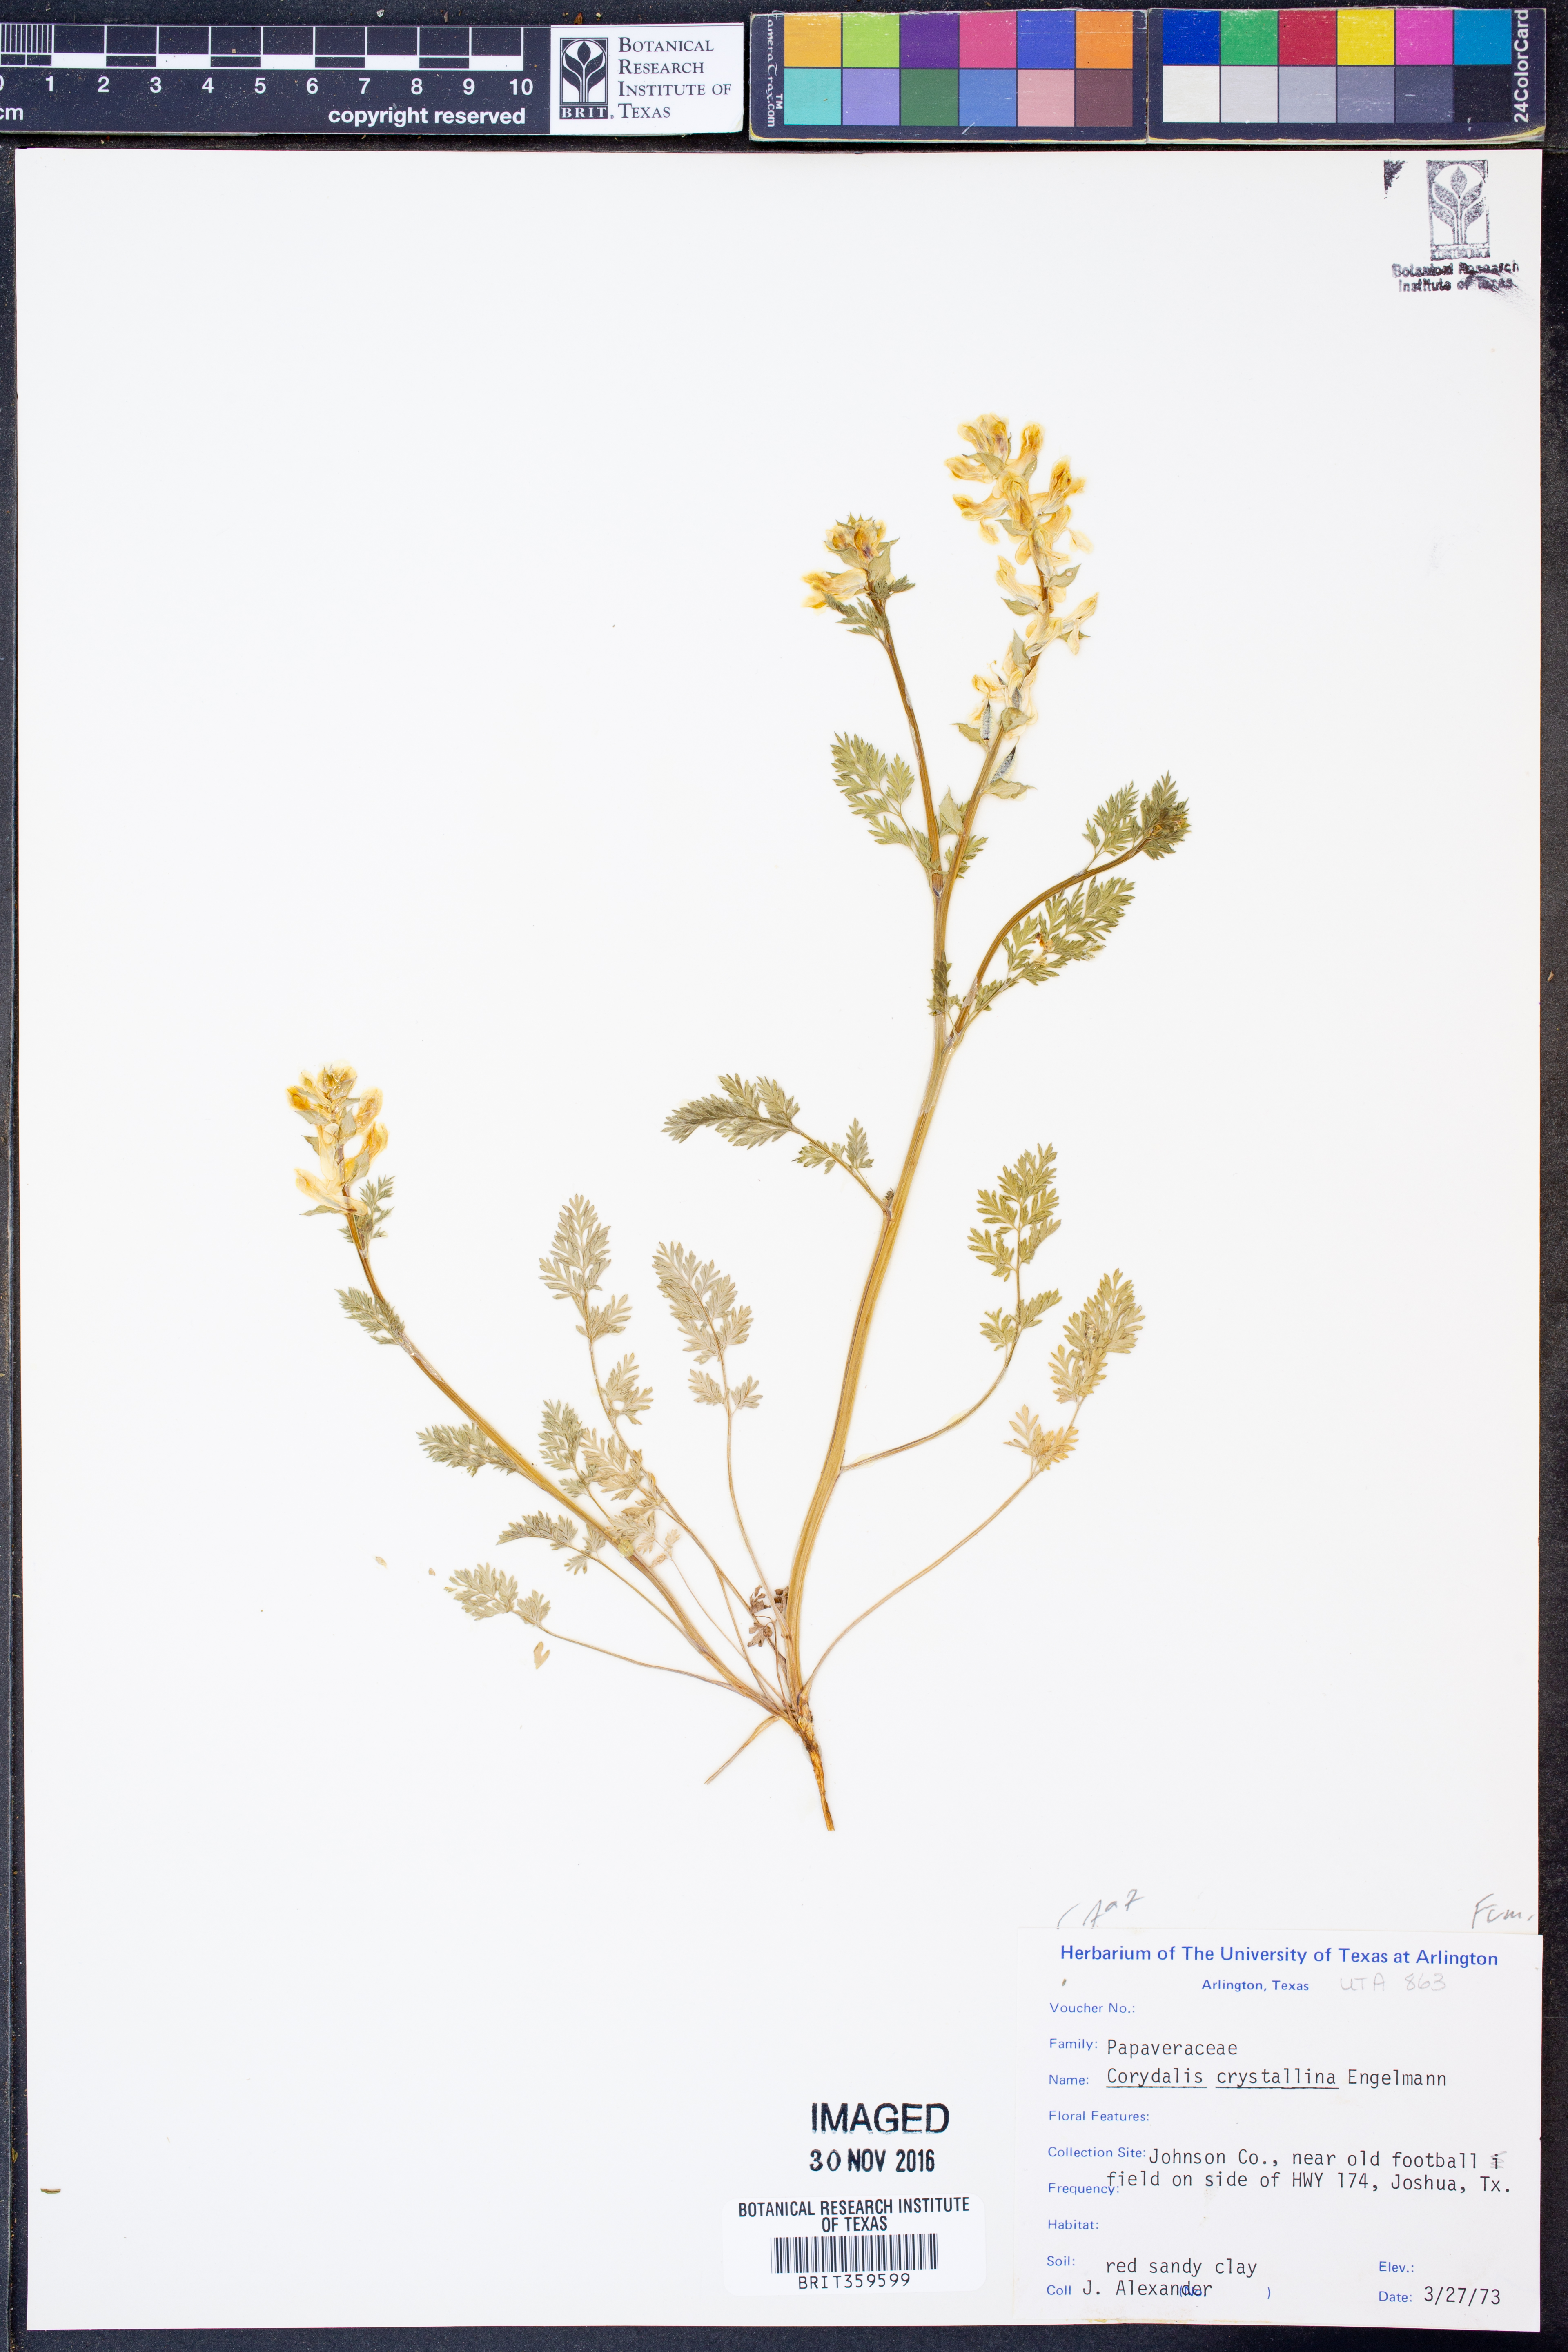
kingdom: Plantae
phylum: Tracheophyta
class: Magnoliopsida
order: Ranunculales
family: Papaveraceae
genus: Corydalis
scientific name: Corydalis crystallina
